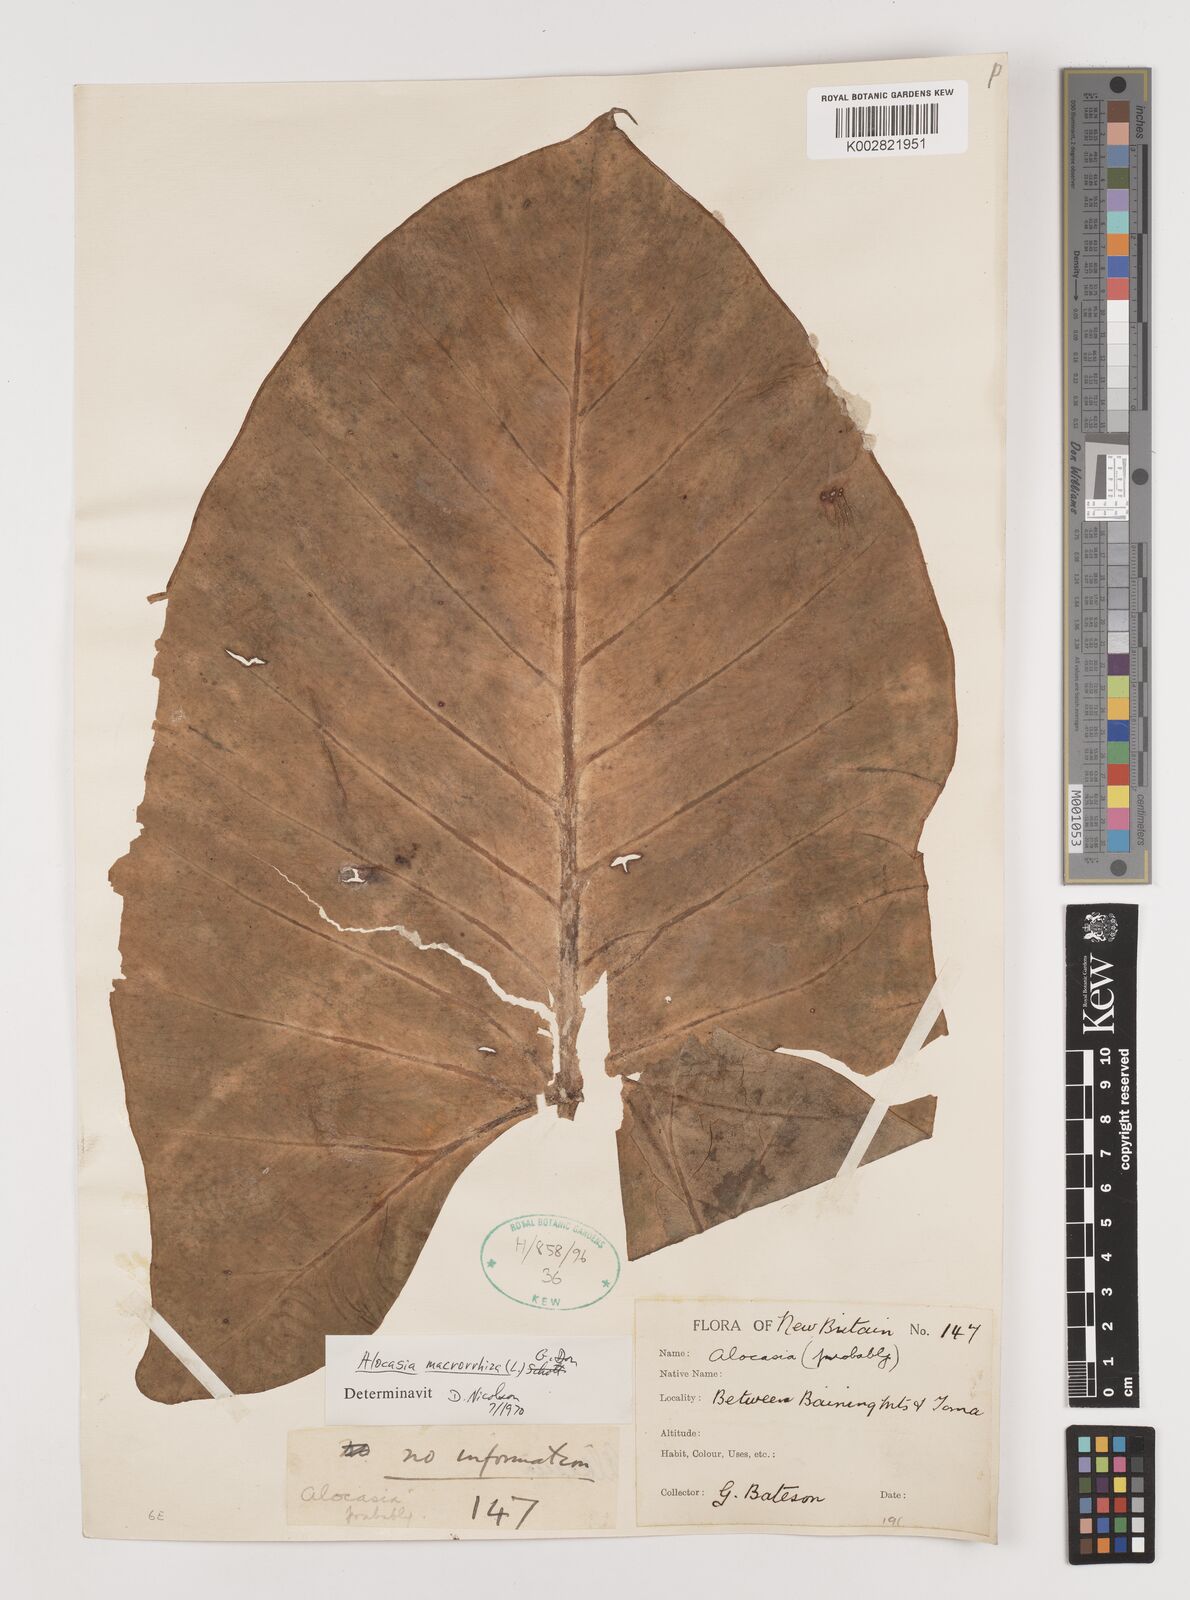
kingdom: Plantae
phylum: Tracheophyta
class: Liliopsida
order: Alismatales
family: Araceae
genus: Alocasia
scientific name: Alocasia macrorrhizos
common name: Giant taro
